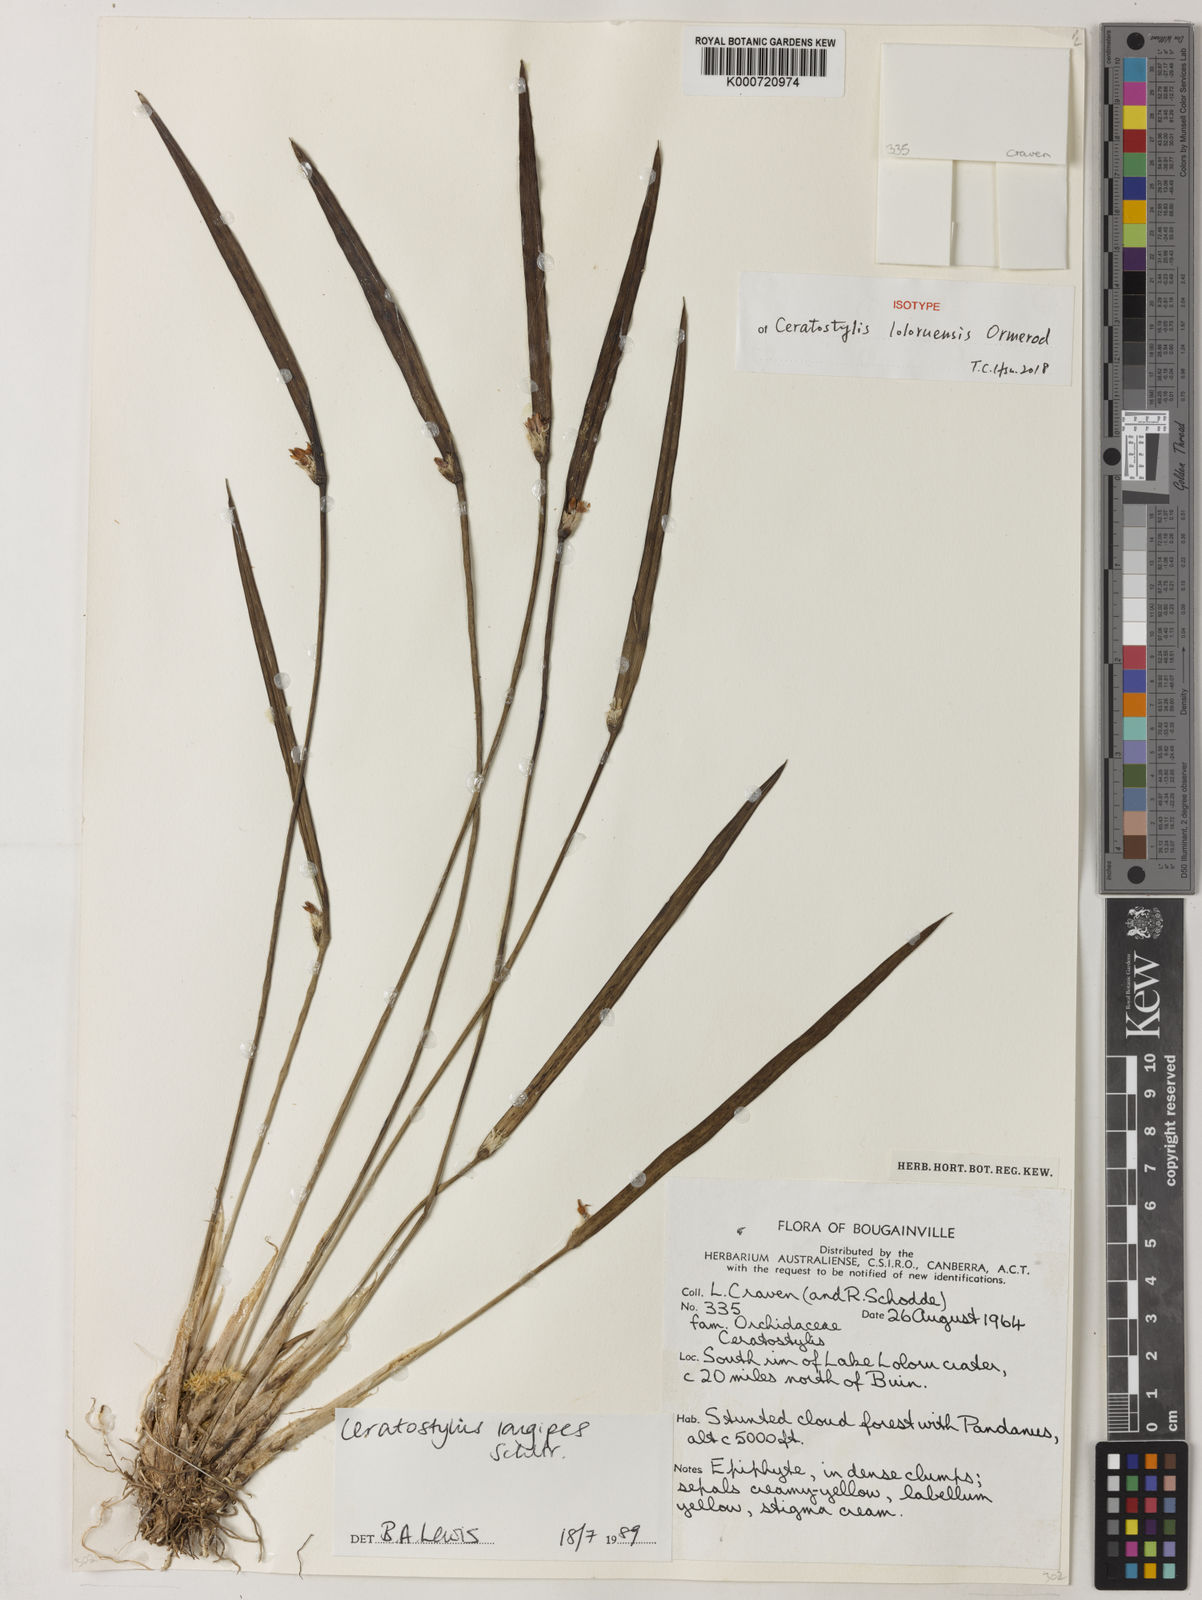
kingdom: Plantae
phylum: Tracheophyta
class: Liliopsida
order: Asparagales
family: Orchidaceae
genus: Ceratostylis
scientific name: Ceratostylis loloruensis
